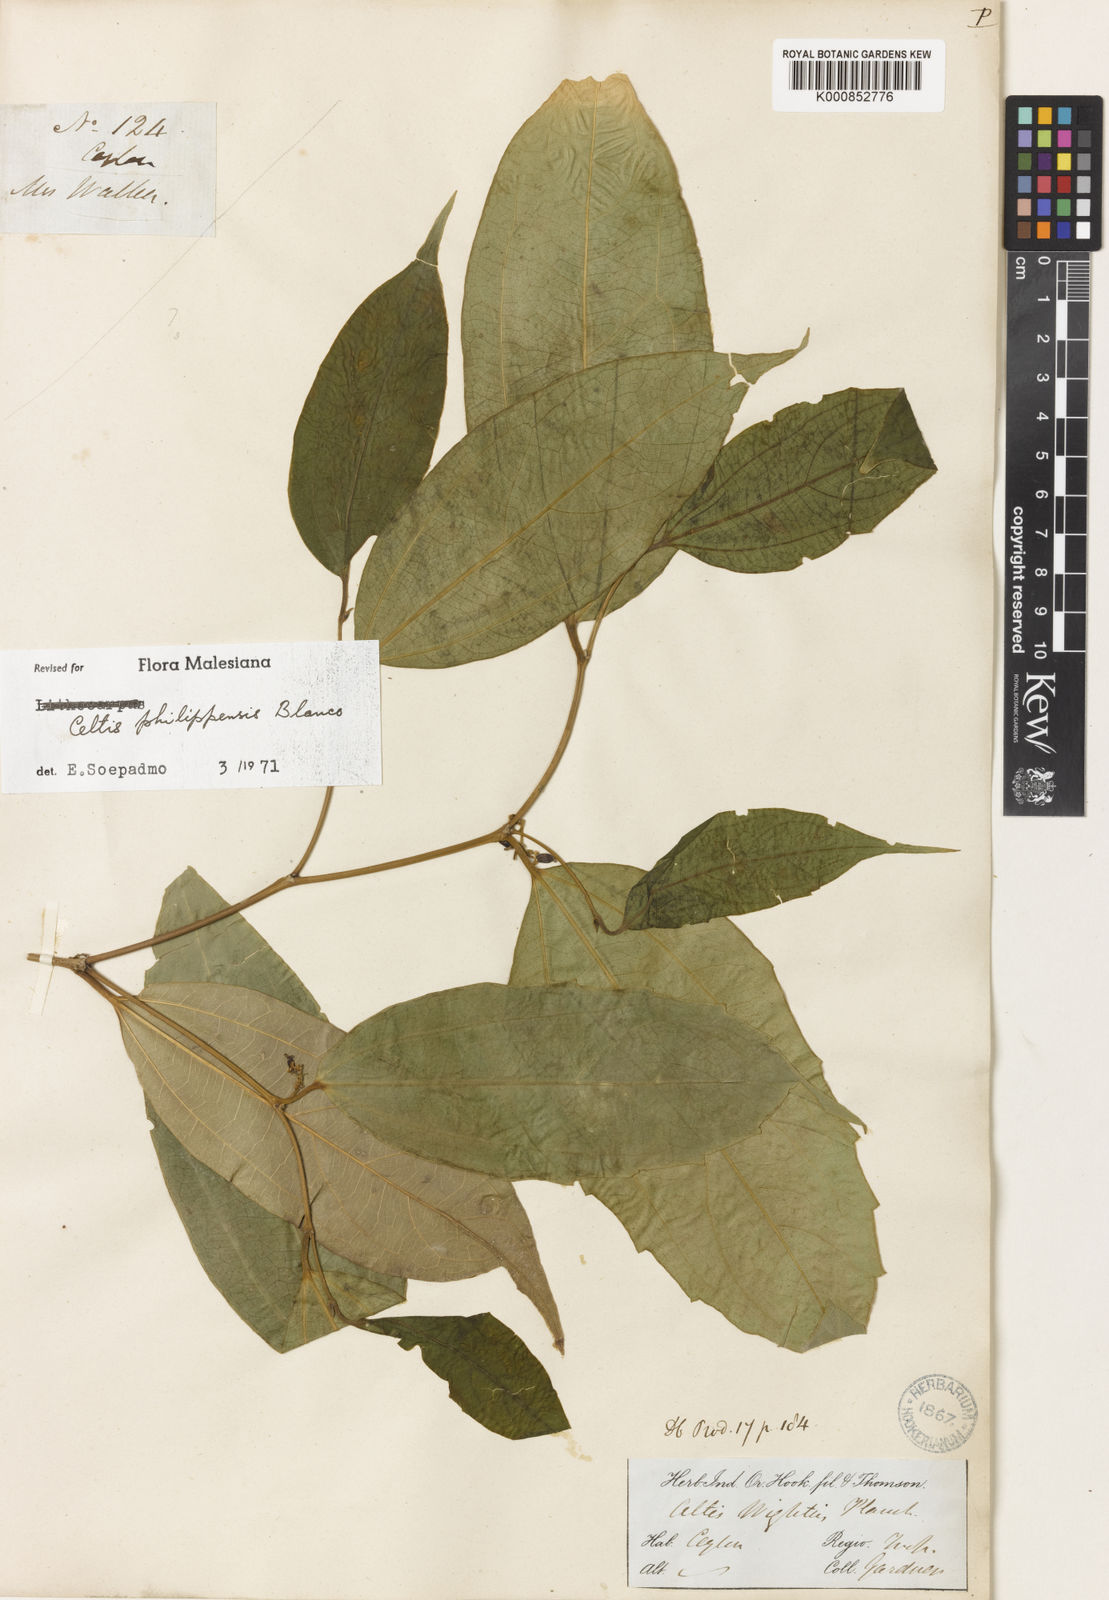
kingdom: Plantae
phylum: Tracheophyta
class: Magnoliopsida
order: Rosales
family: Cannabaceae
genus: Celtis
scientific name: Celtis philippensis
